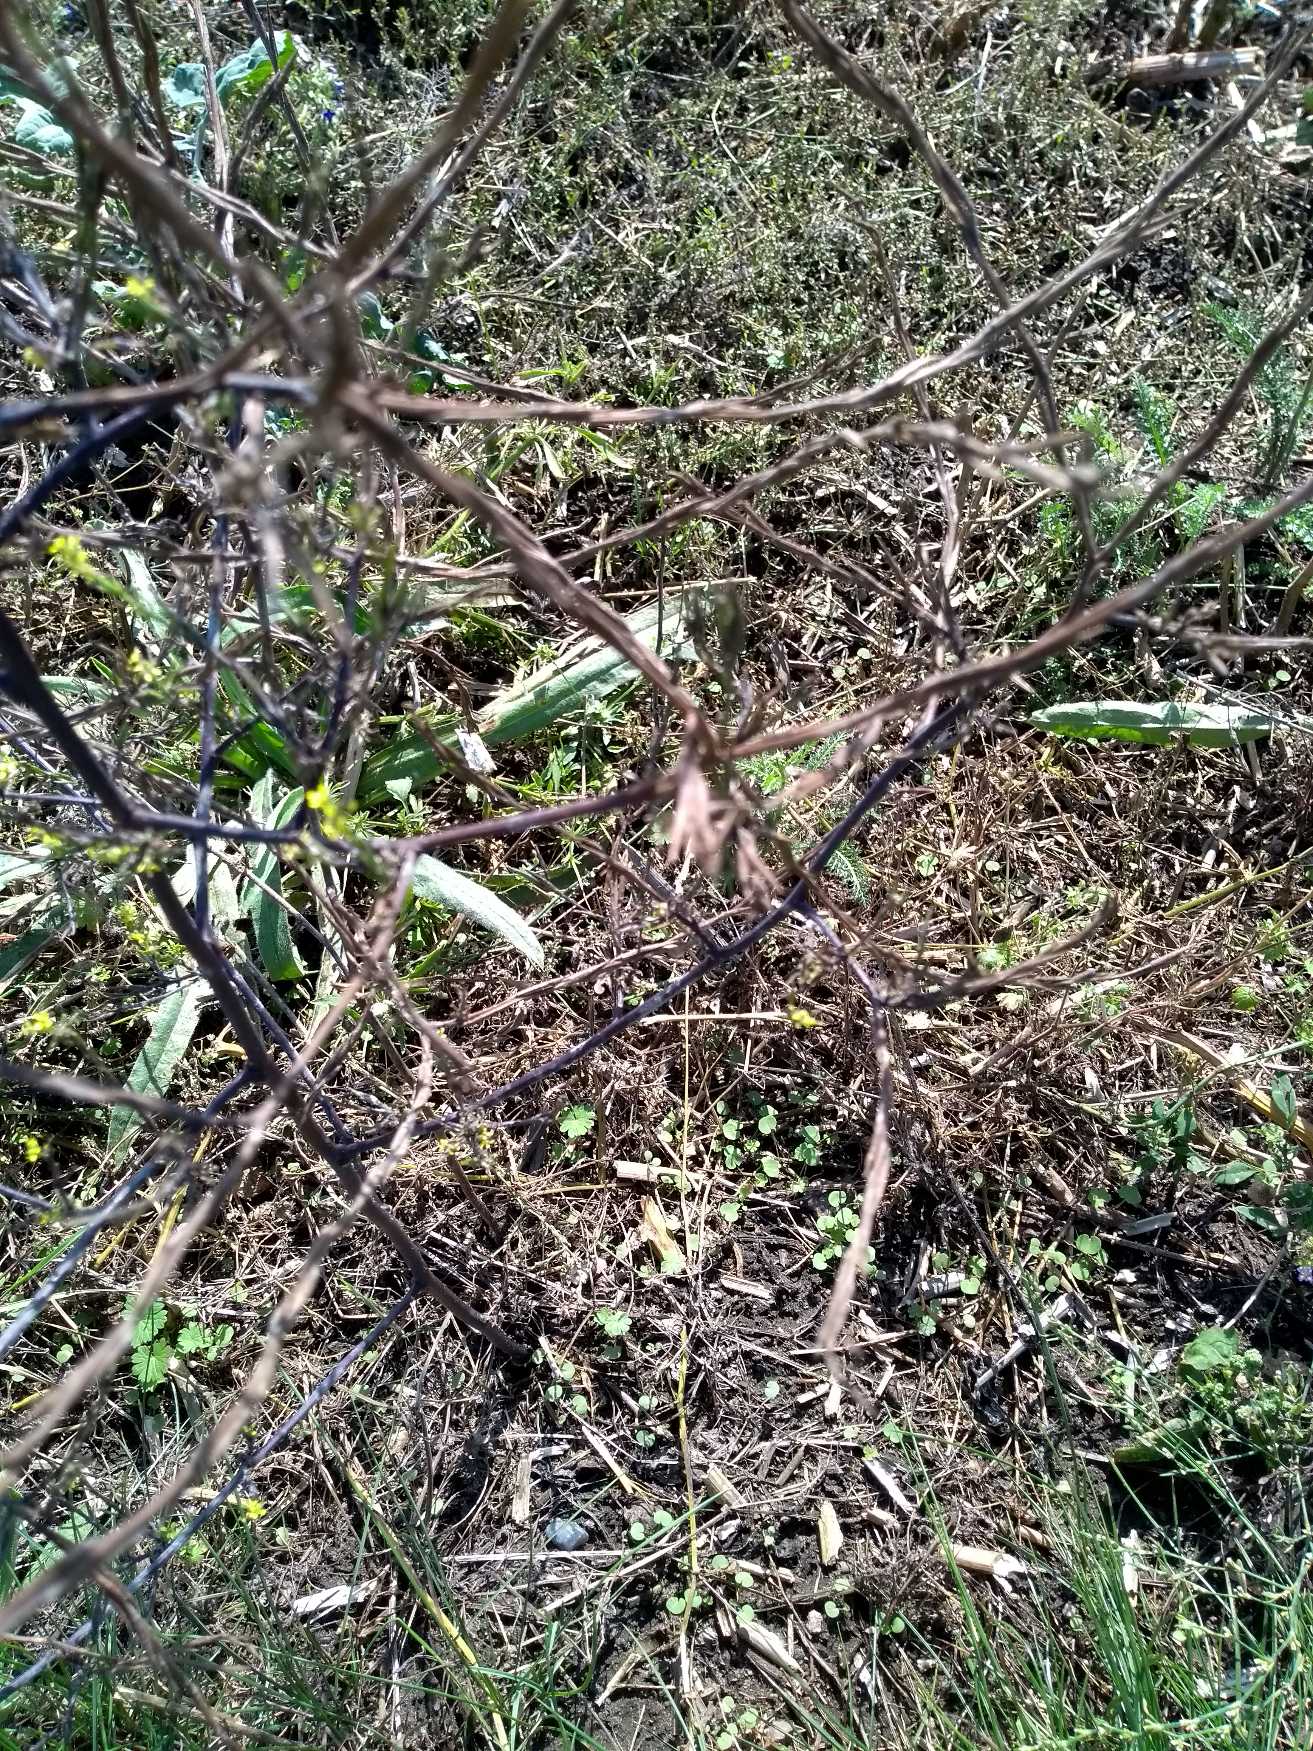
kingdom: Plantae
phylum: Tracheophyta
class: Magnoliopsida
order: Brassicales
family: Brassicaceae
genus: Sisymbrium
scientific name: Sisymbrium officinale
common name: Rank vejsennep
